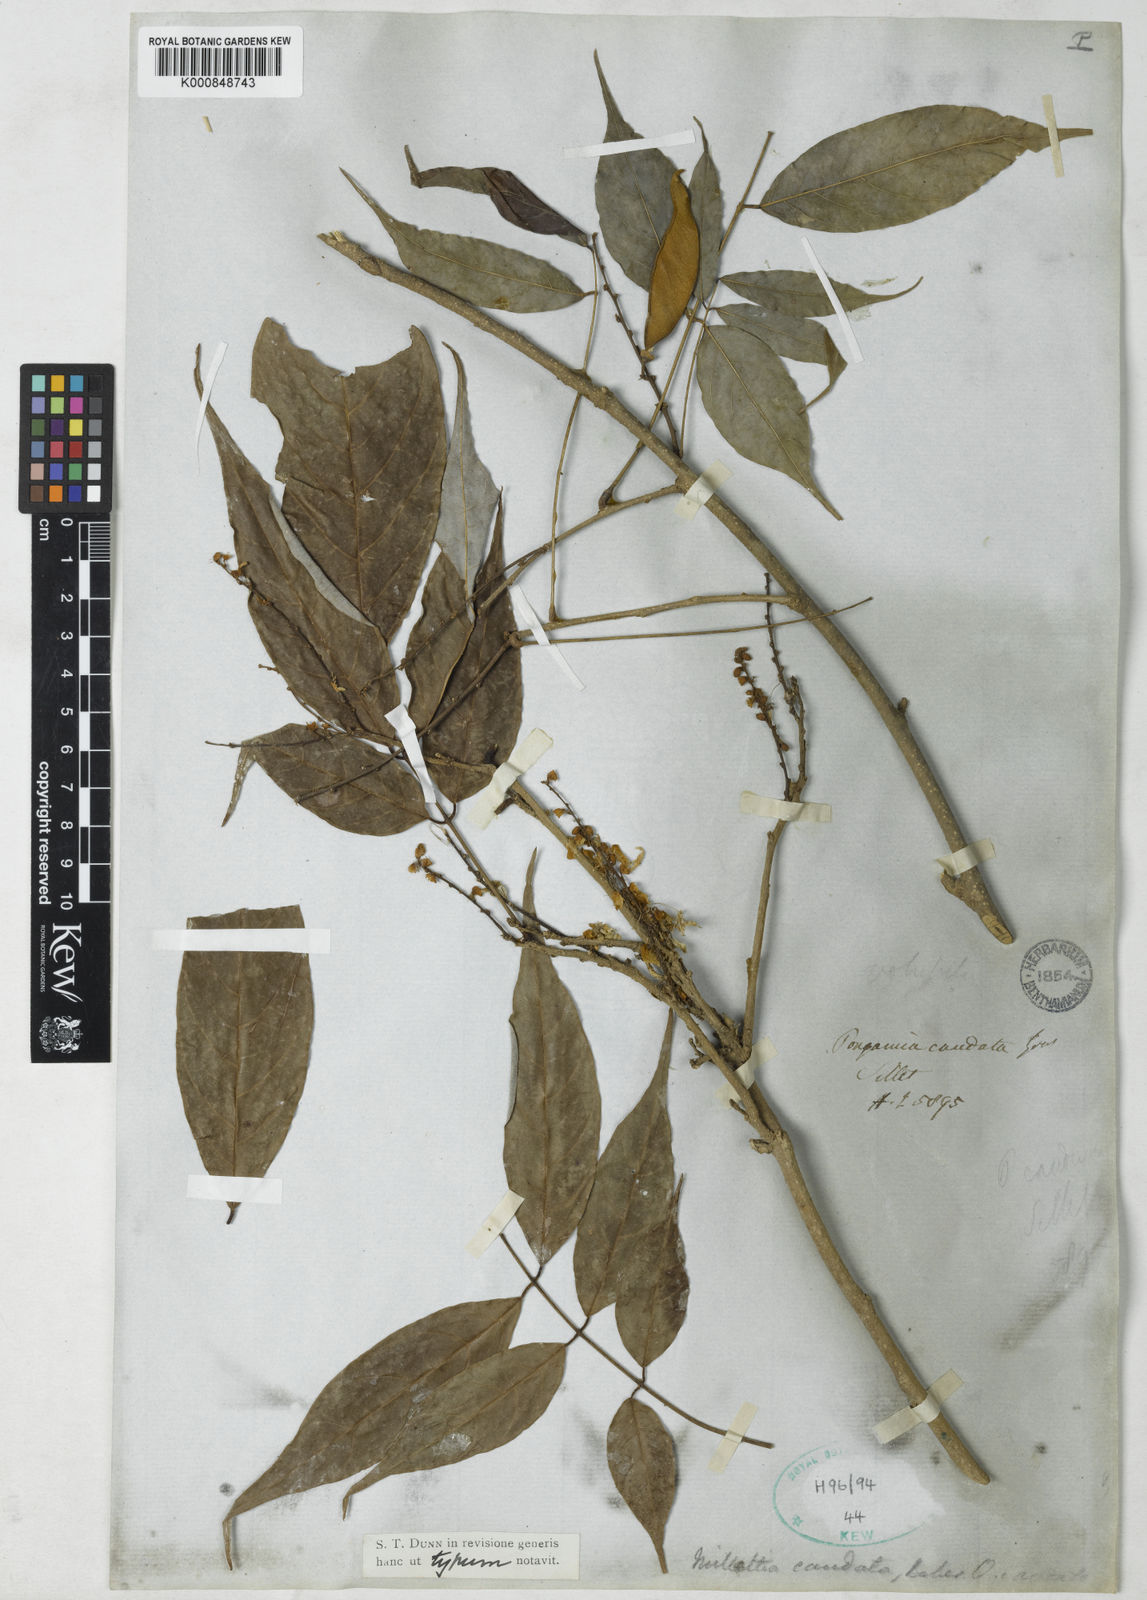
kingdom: Plantae
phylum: Tracheophyta
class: Magnoliopsida
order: Fabales
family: Fabaceae
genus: Millettia
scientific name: Millettia caudata
